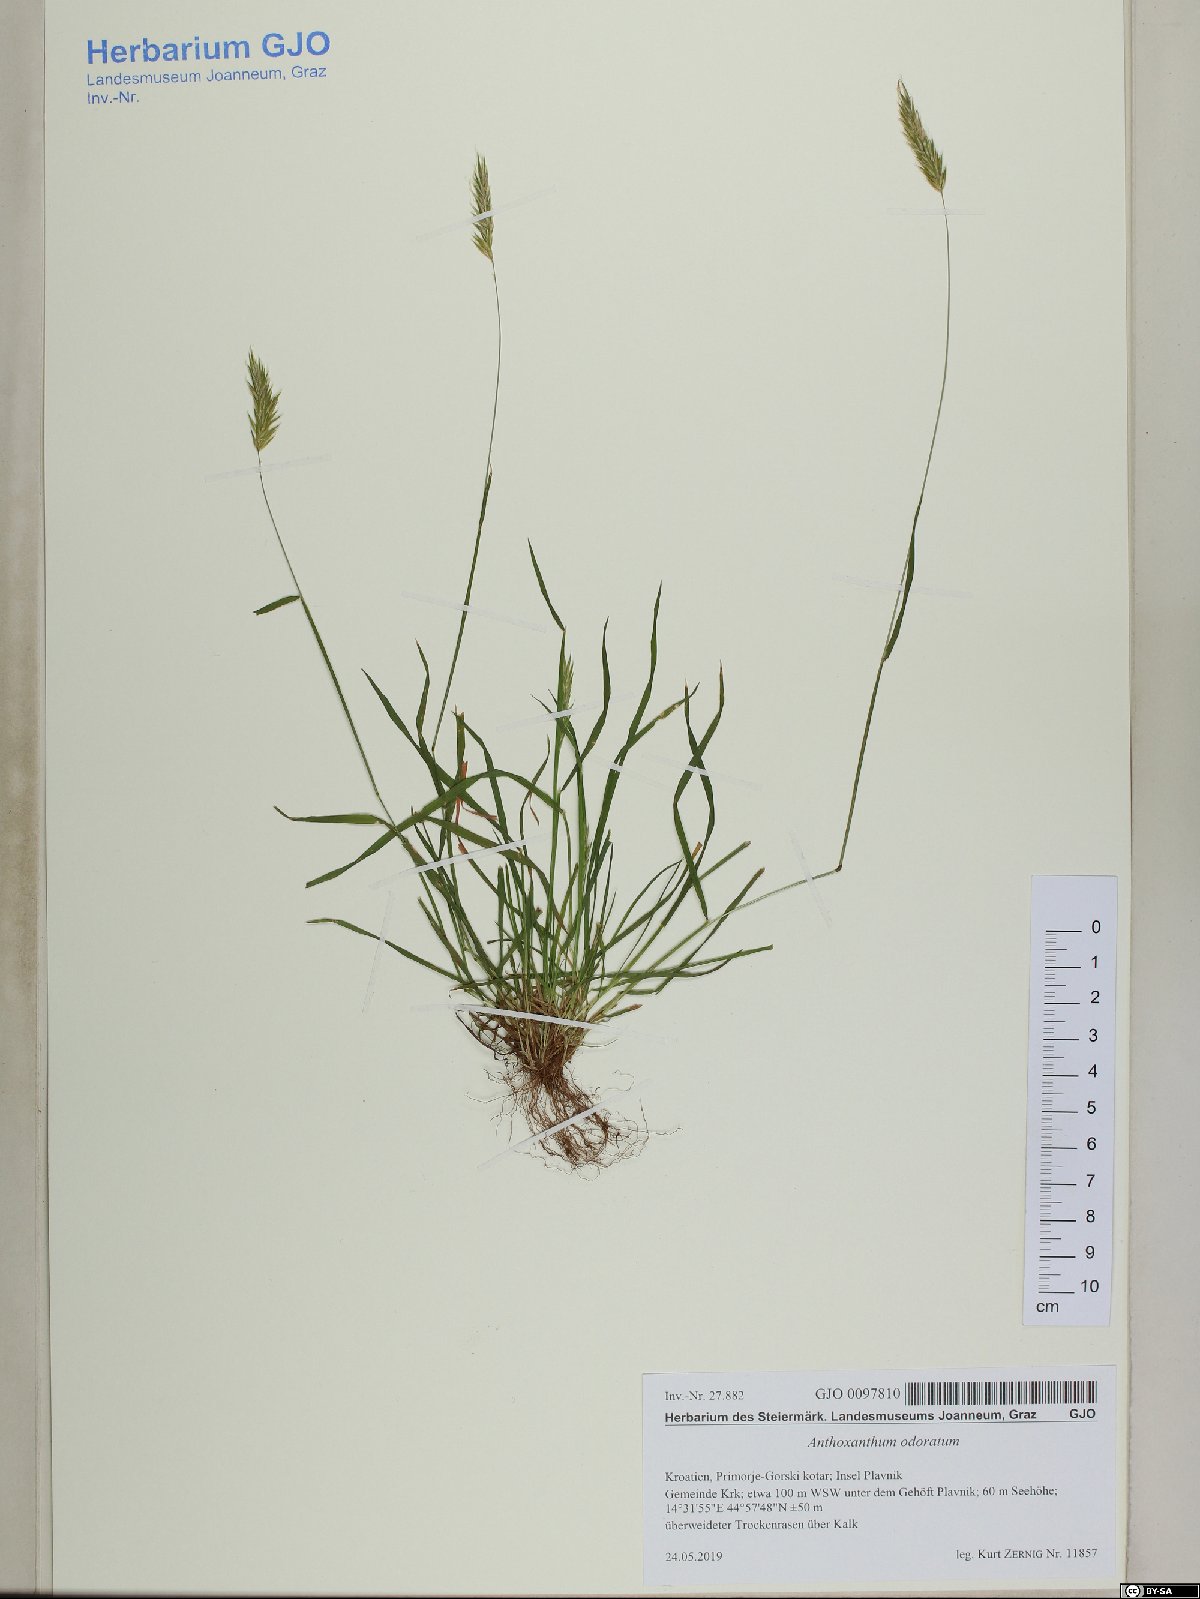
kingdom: Plantae
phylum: Tracheophyta
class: Liliopsida
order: Poales
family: Poaceae
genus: Anthoxanthum
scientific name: Anthoxanthum odoratum
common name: Sweet vernalgrass
